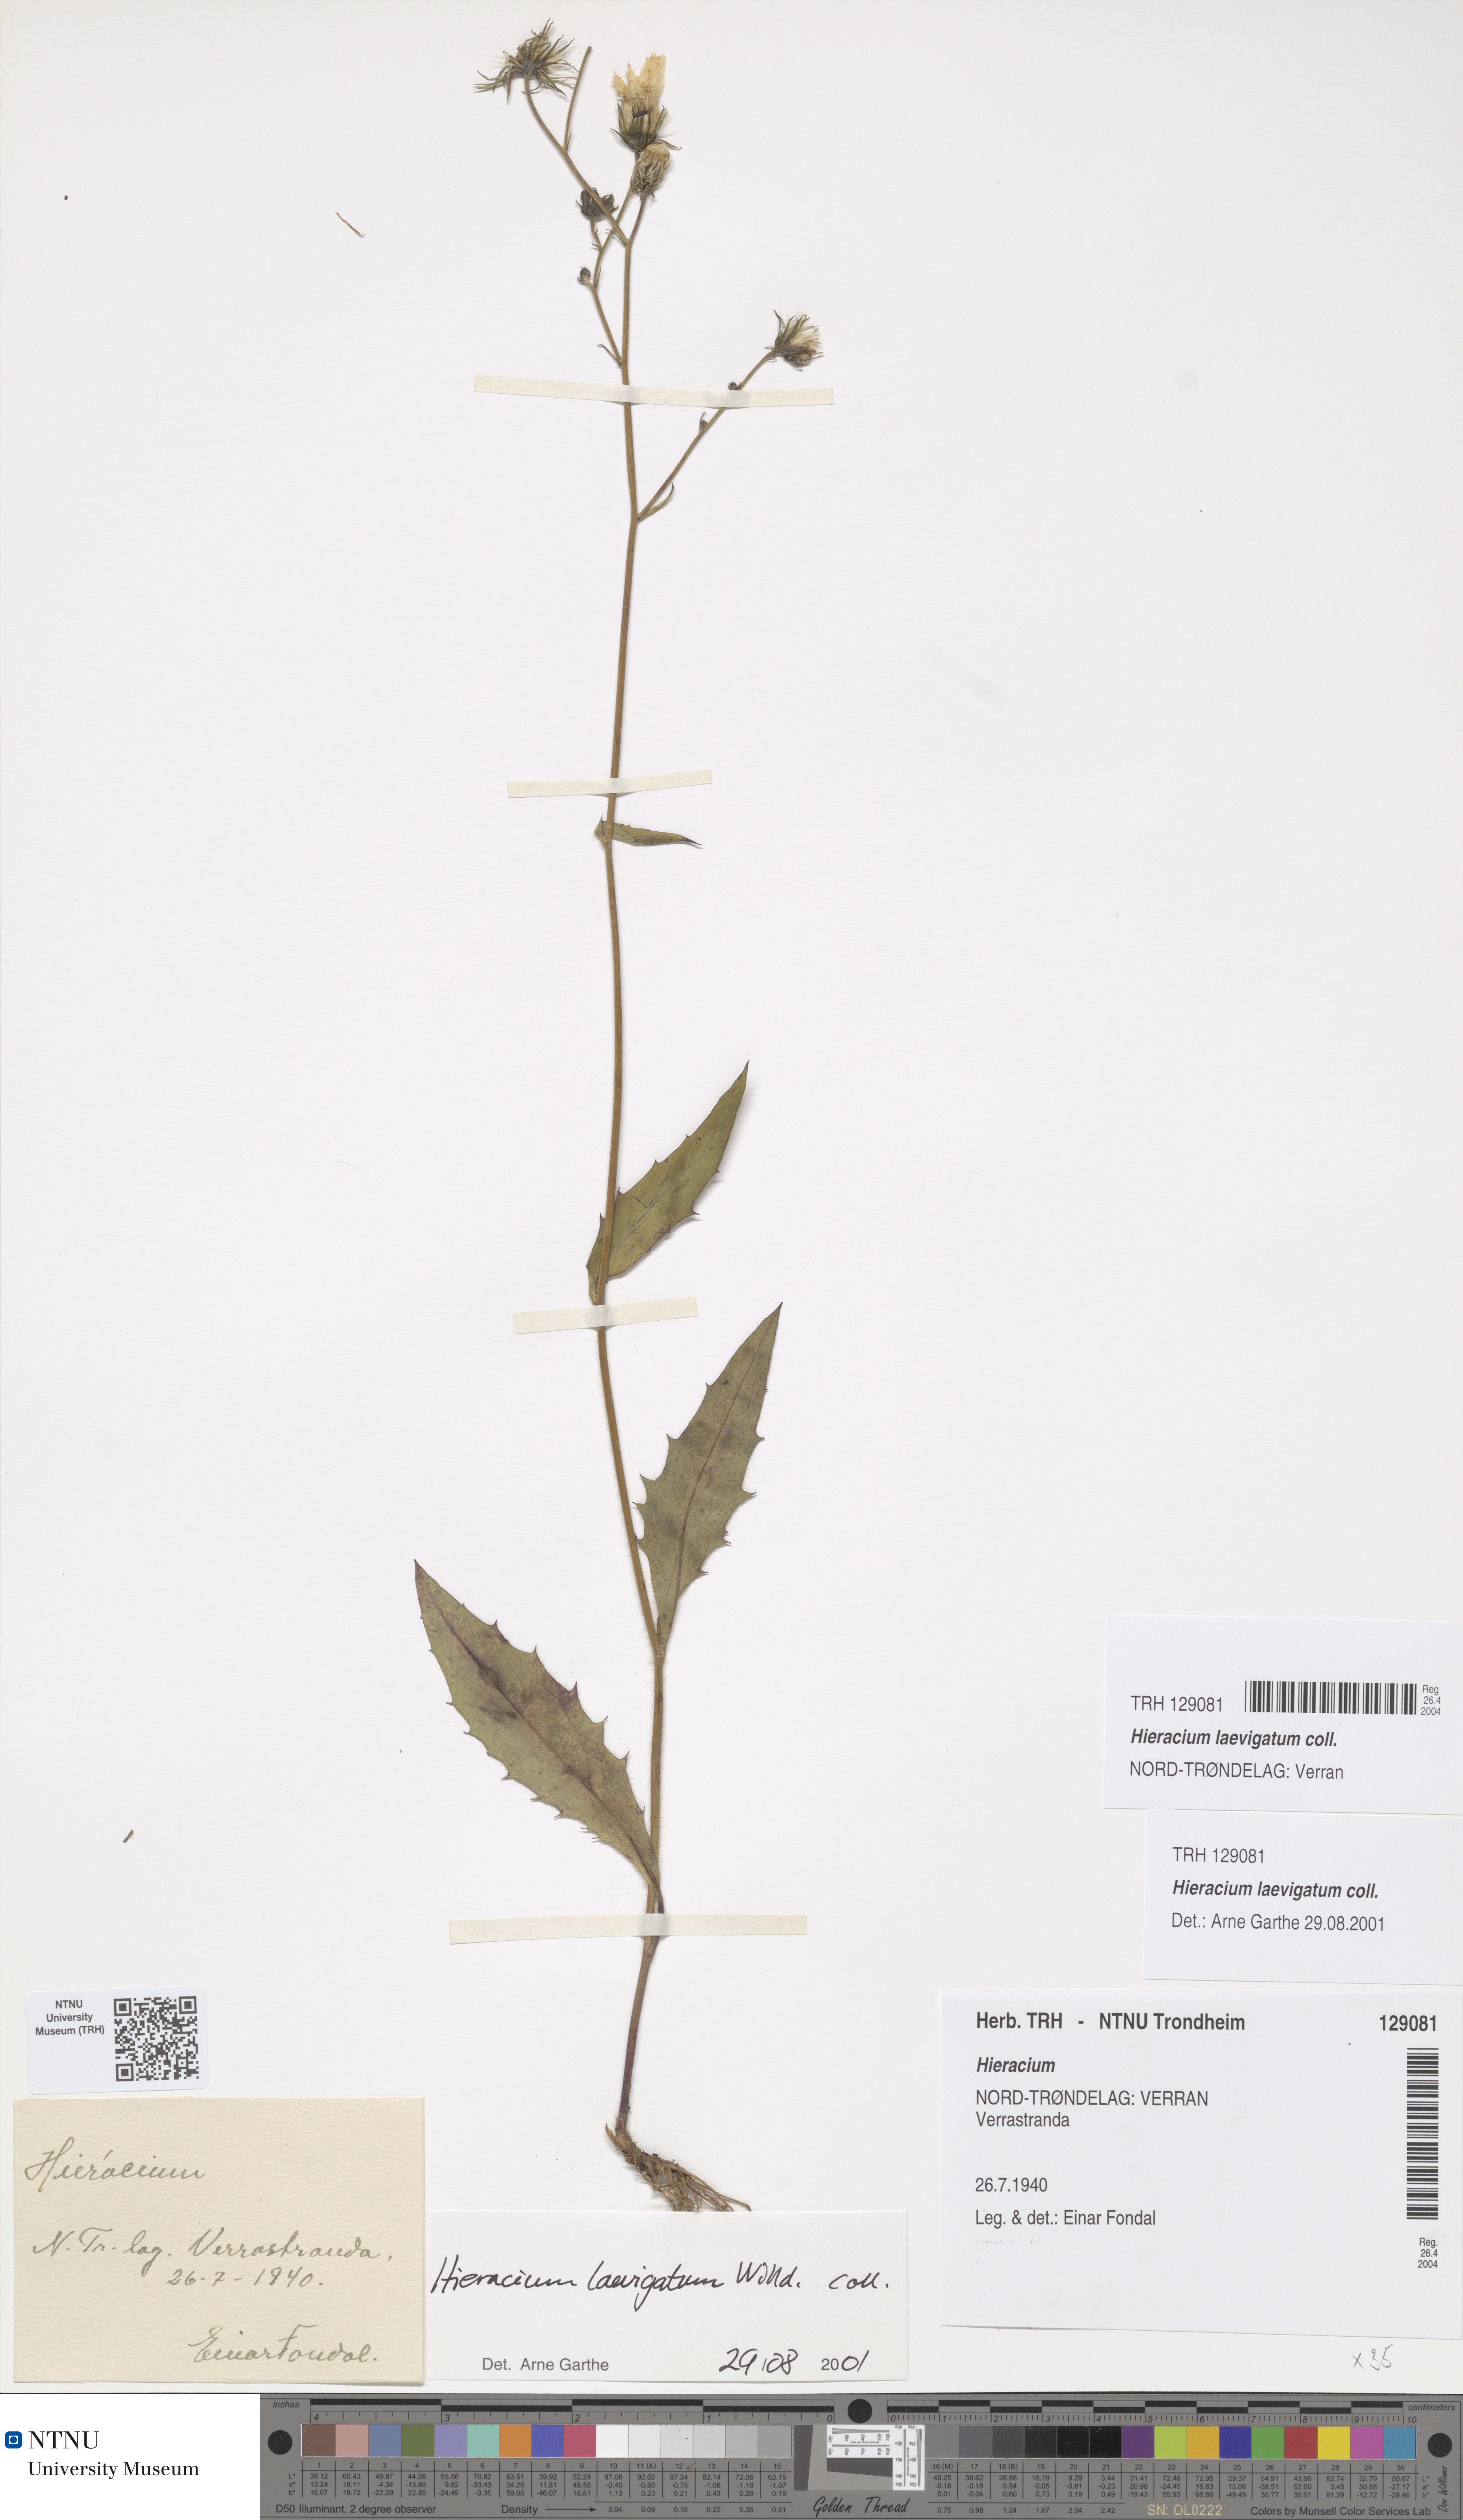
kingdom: Plantae
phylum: Tracheophyta
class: Magnoliopsida
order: Asterales
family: Asteraceae
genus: Hieracium
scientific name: Hieracium laevigatum
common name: Smooth hawkweed
